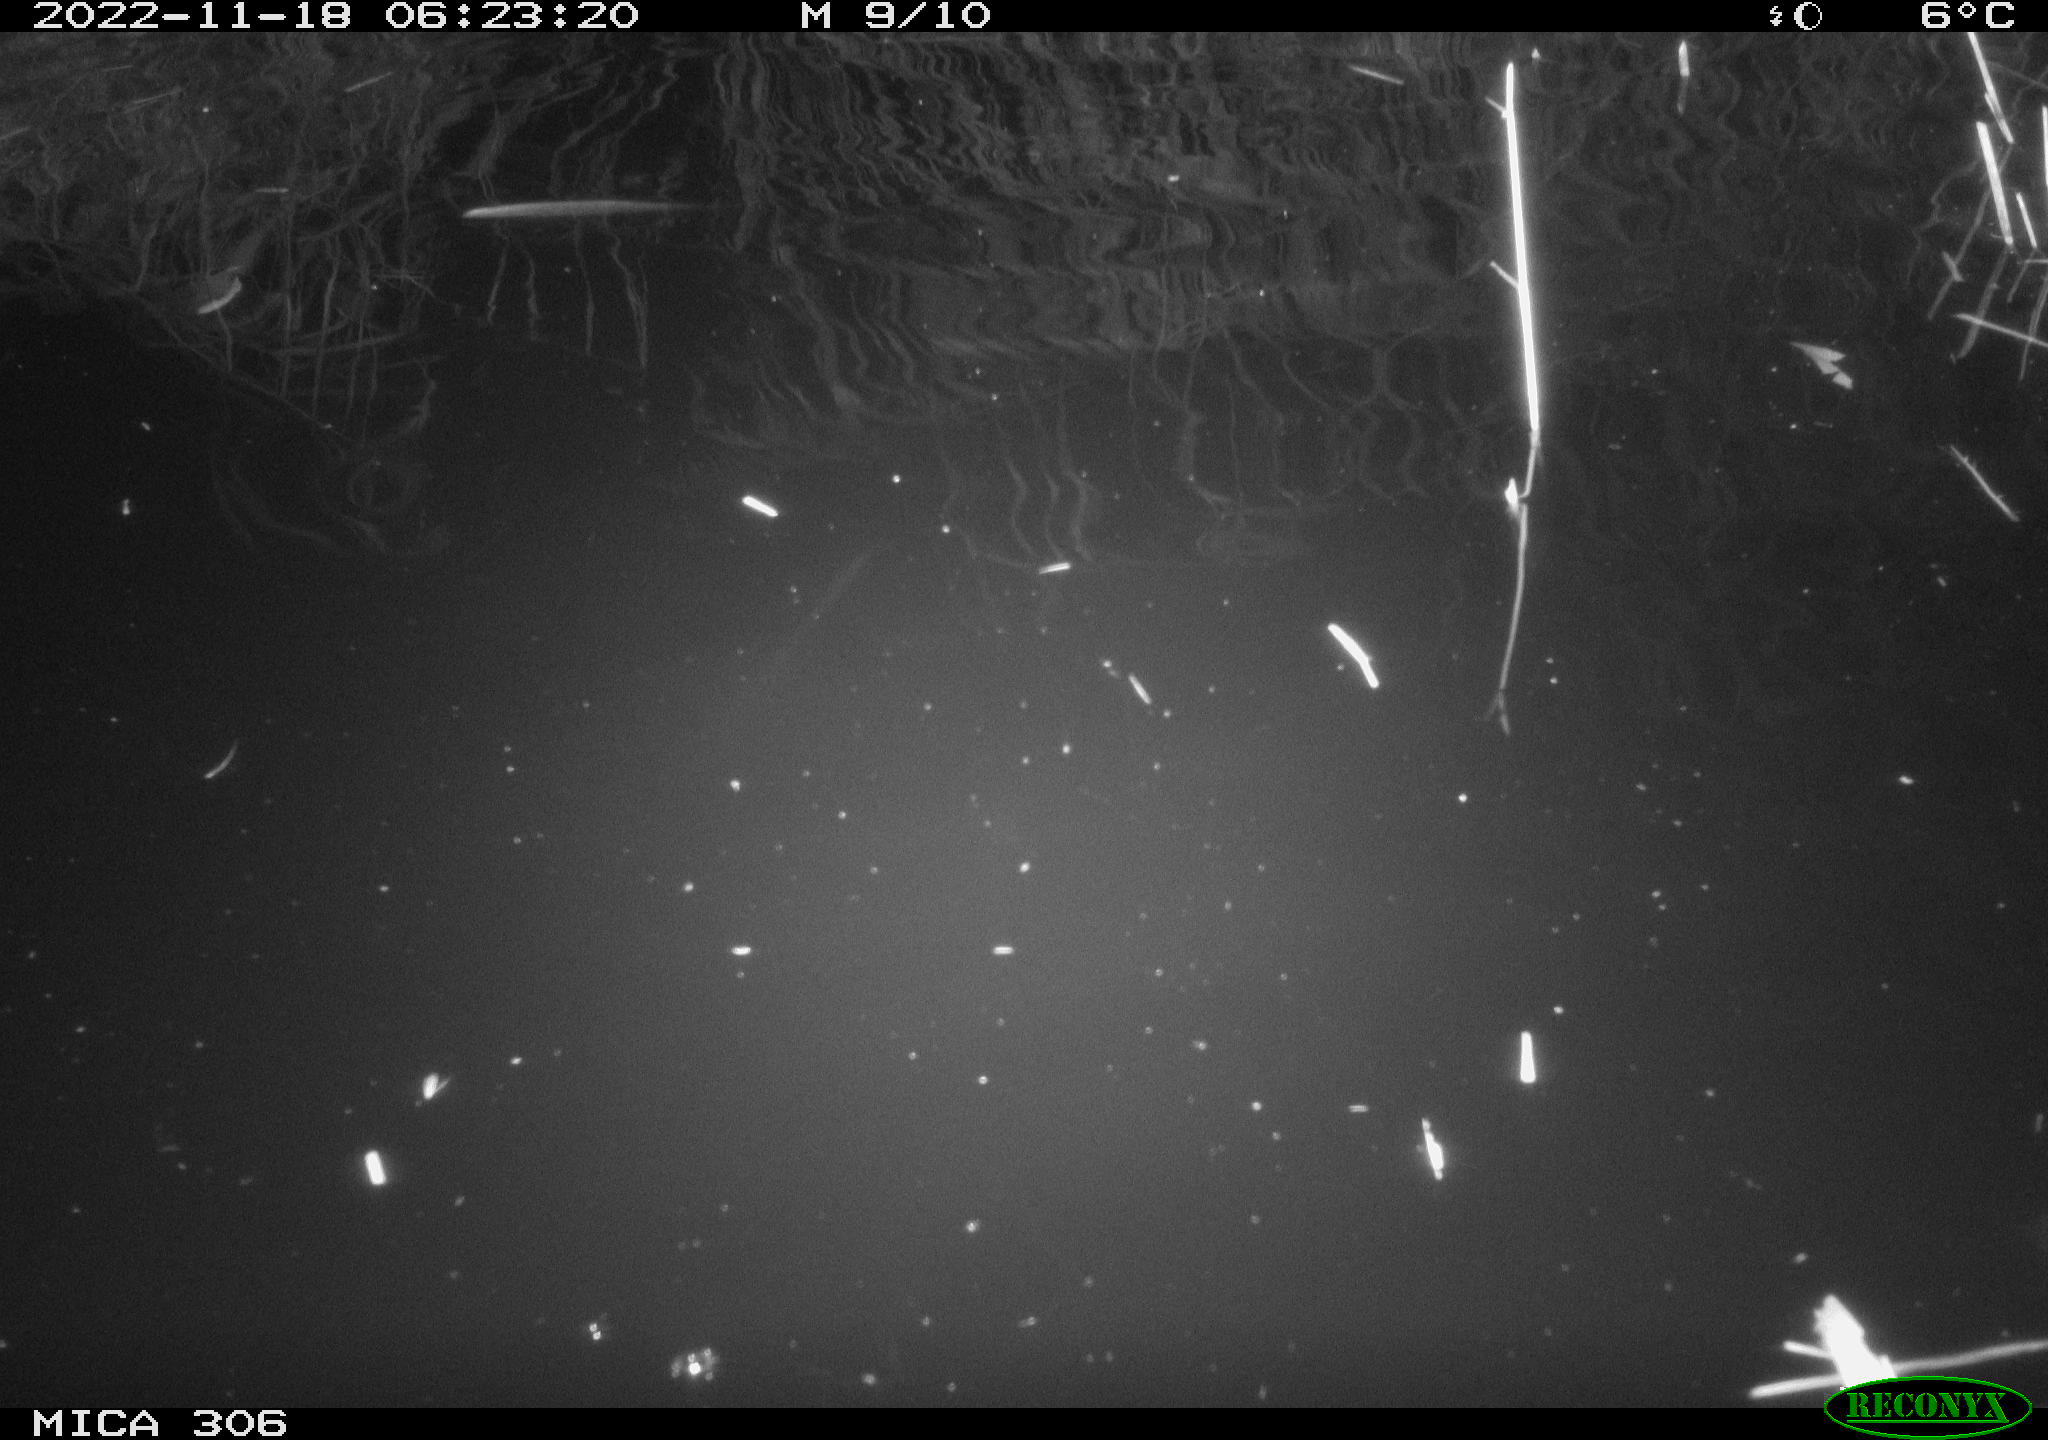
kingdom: Animalia
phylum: Chordata
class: Mammalia
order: Rodentia
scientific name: Rodentia
